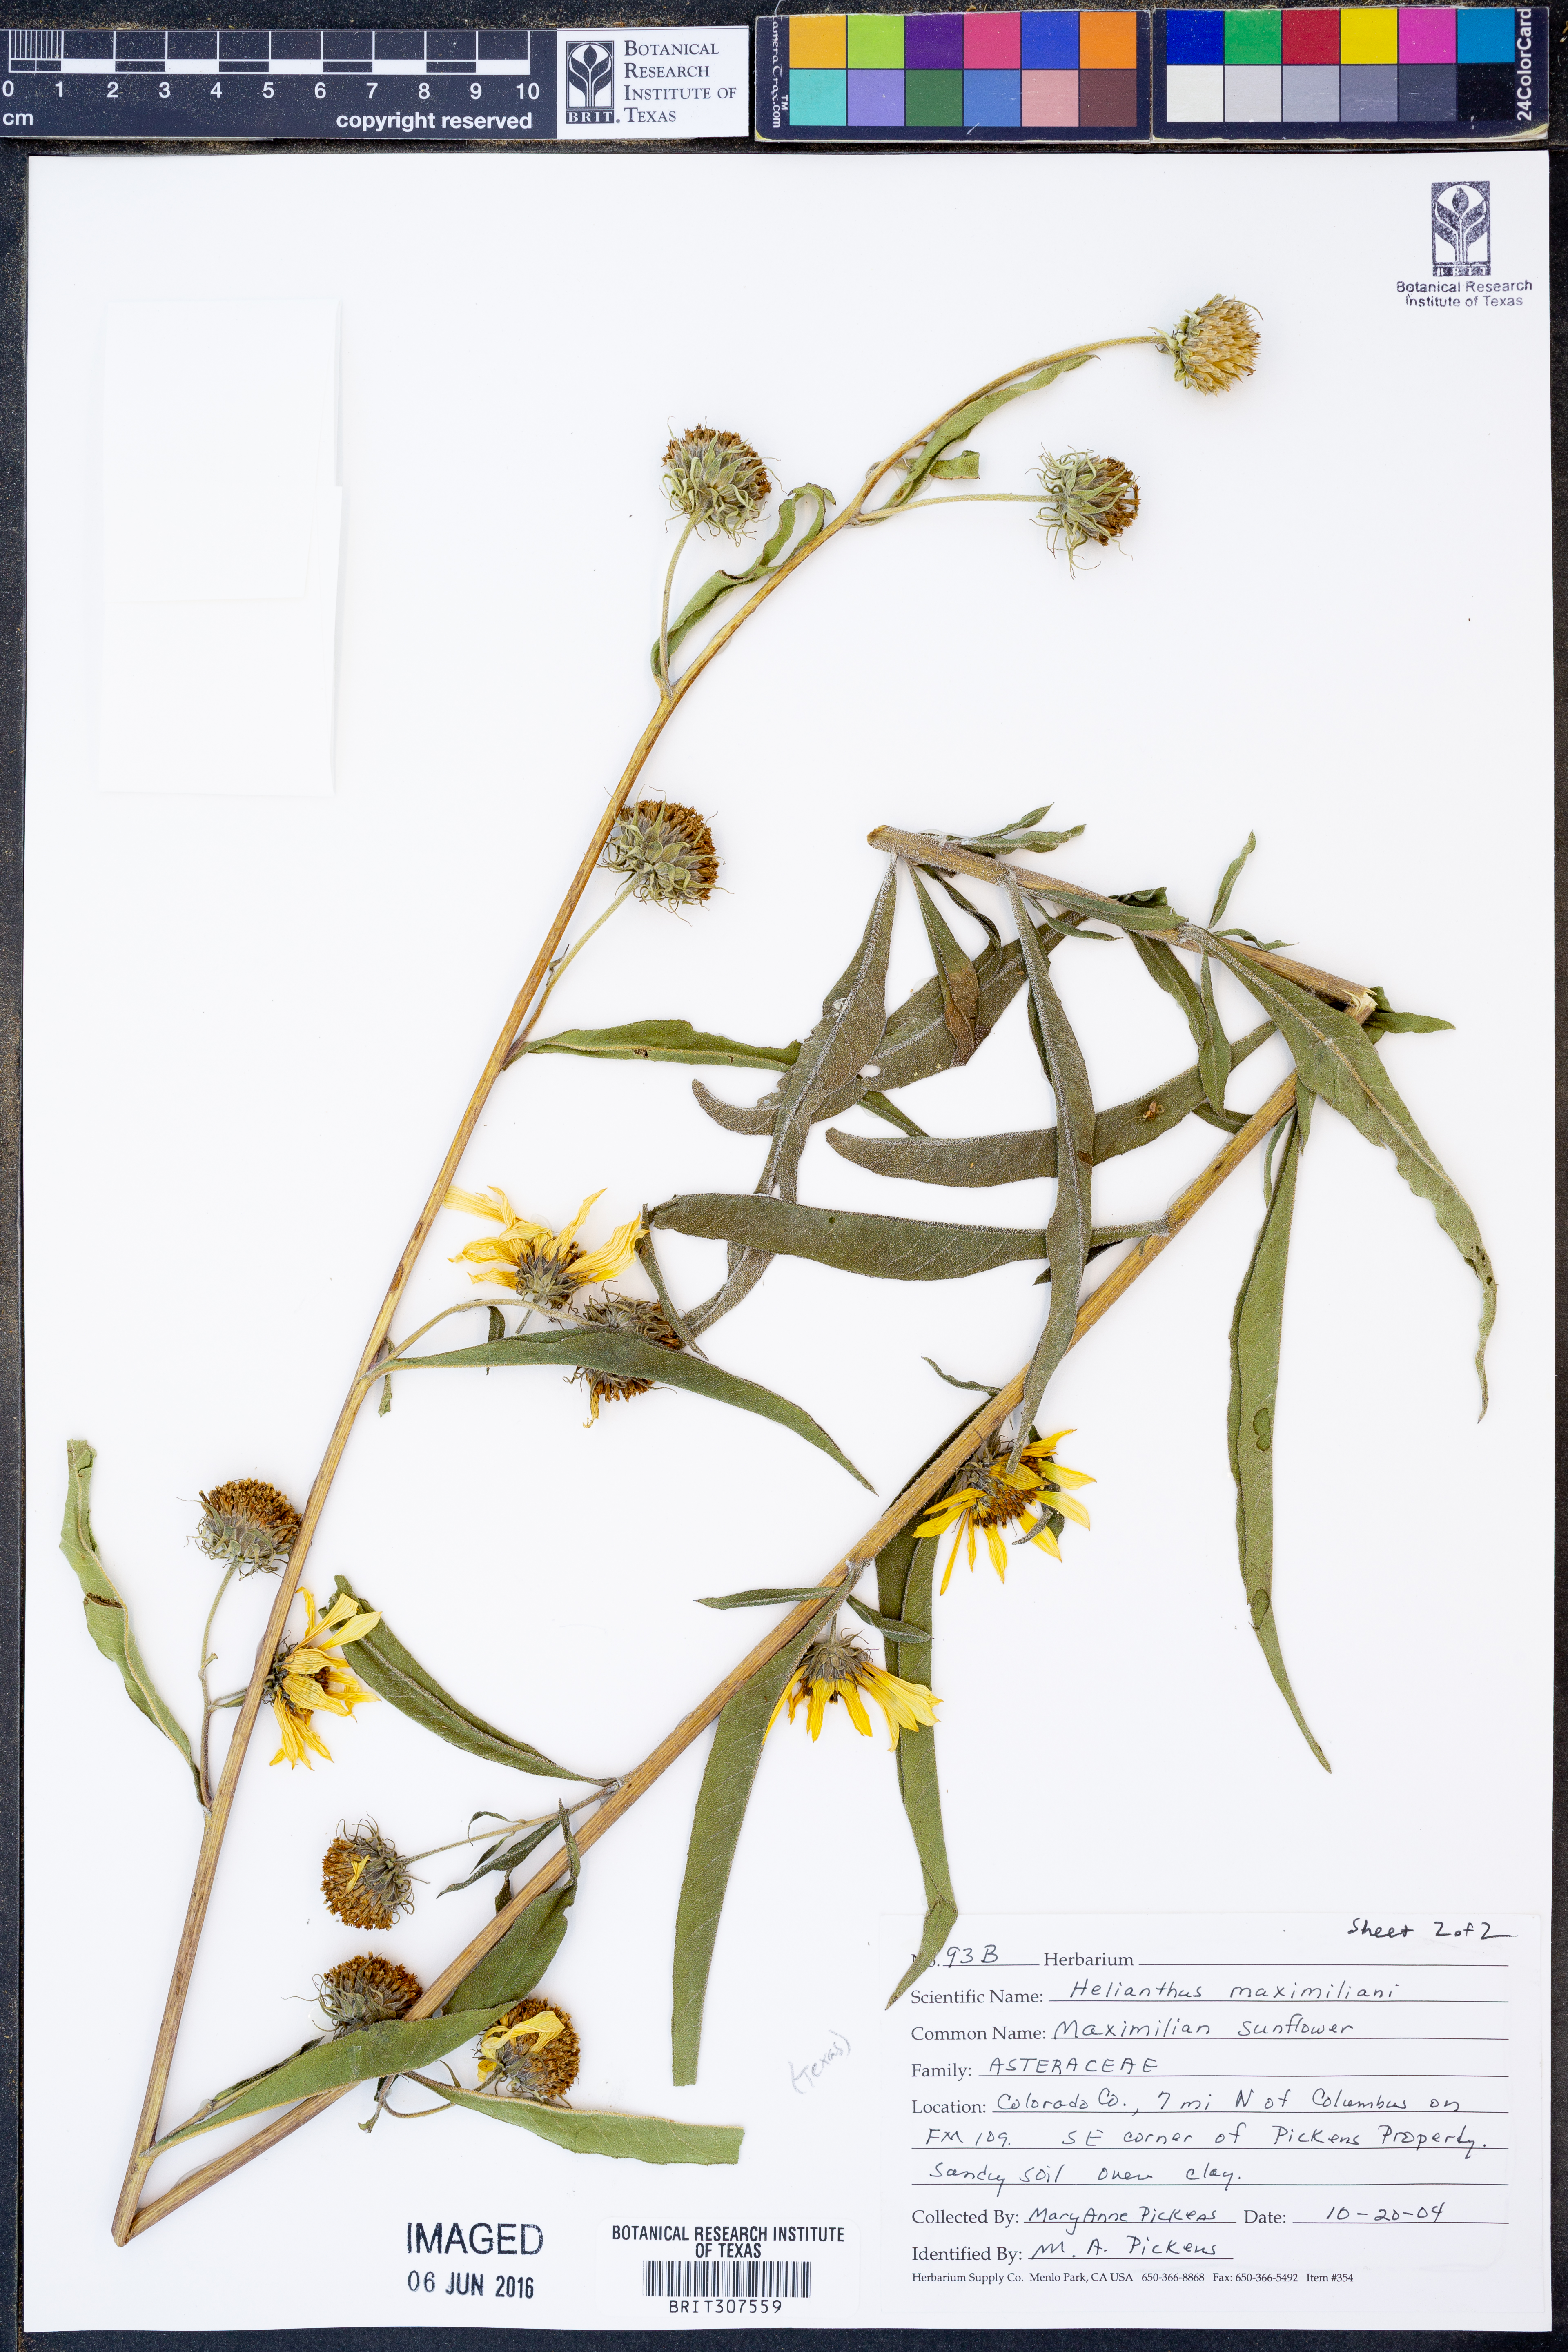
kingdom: Plantae
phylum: Tracheophyta
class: Magnoliopsida
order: Asterales
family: Asteraceae
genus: Helianthus
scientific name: Helianthus maximiliani
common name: Maximilian's sunflower
